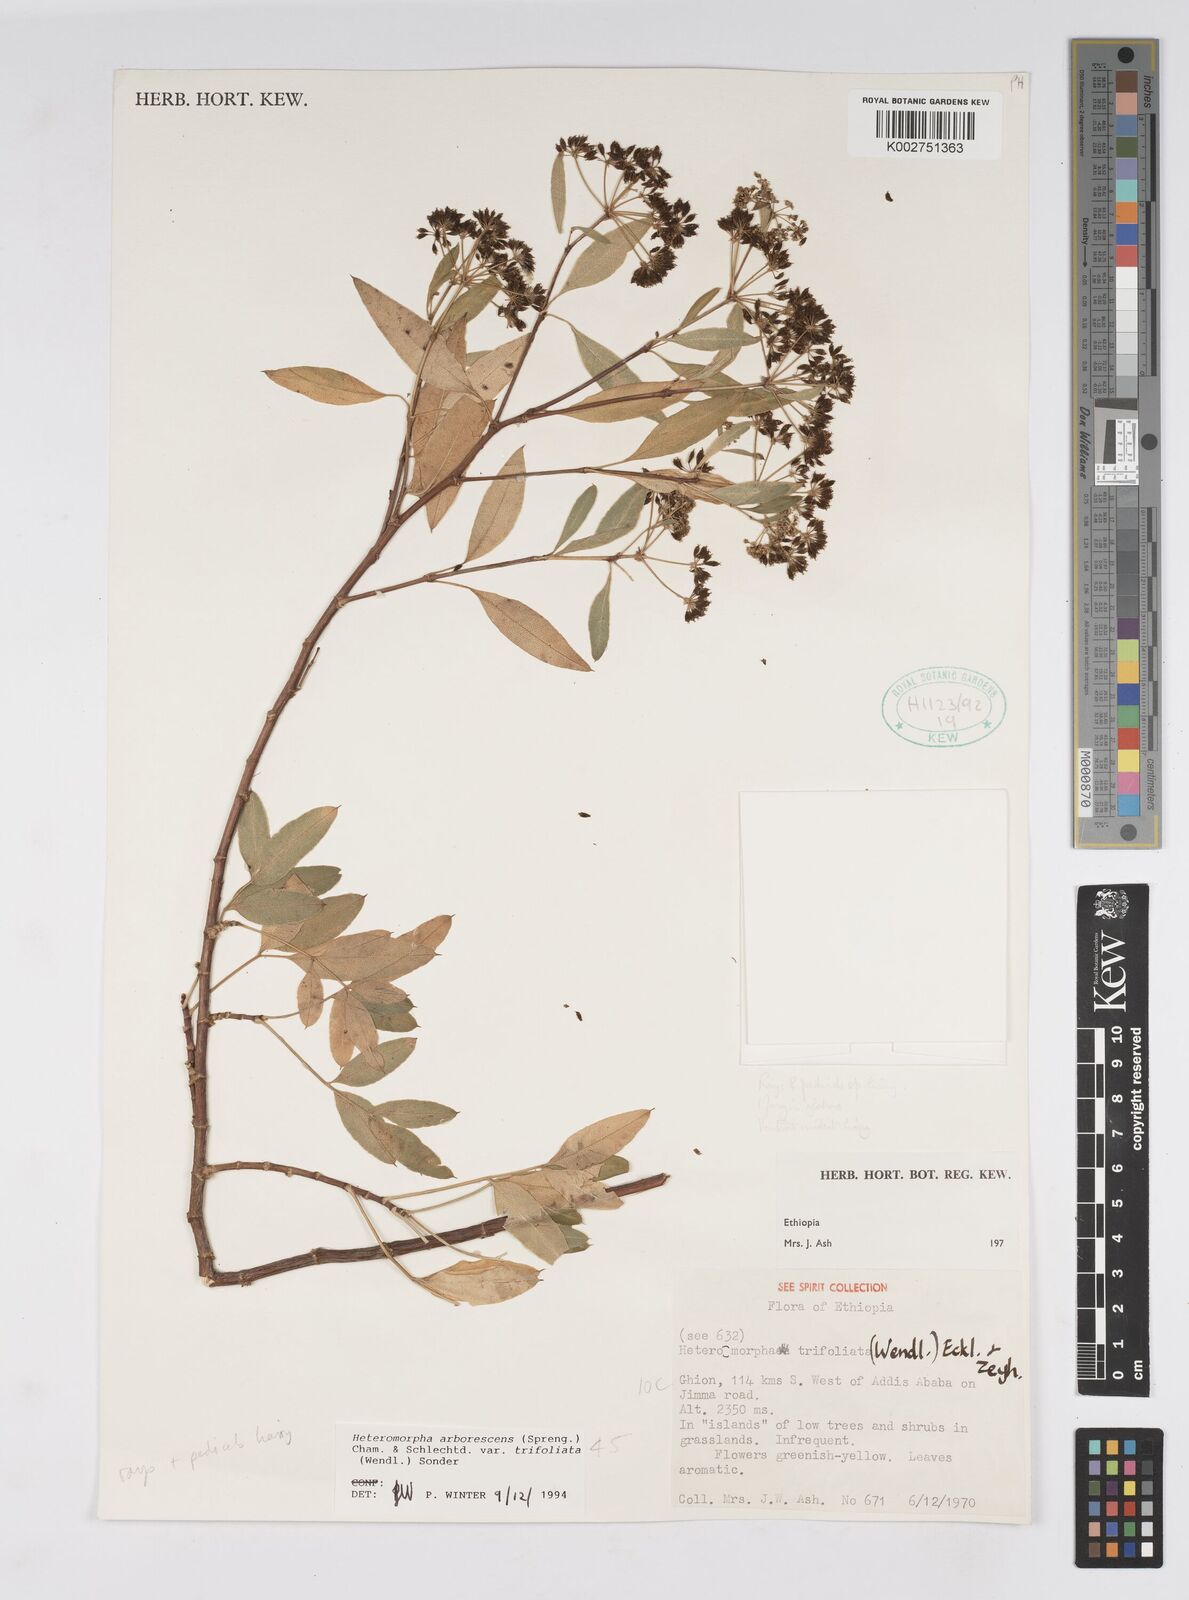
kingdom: Plantae
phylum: Tracheophyta
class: Magnoliopsida
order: Apiales
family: Apiaceae
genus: Heteromorpha
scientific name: Heteromorpha arborescens
